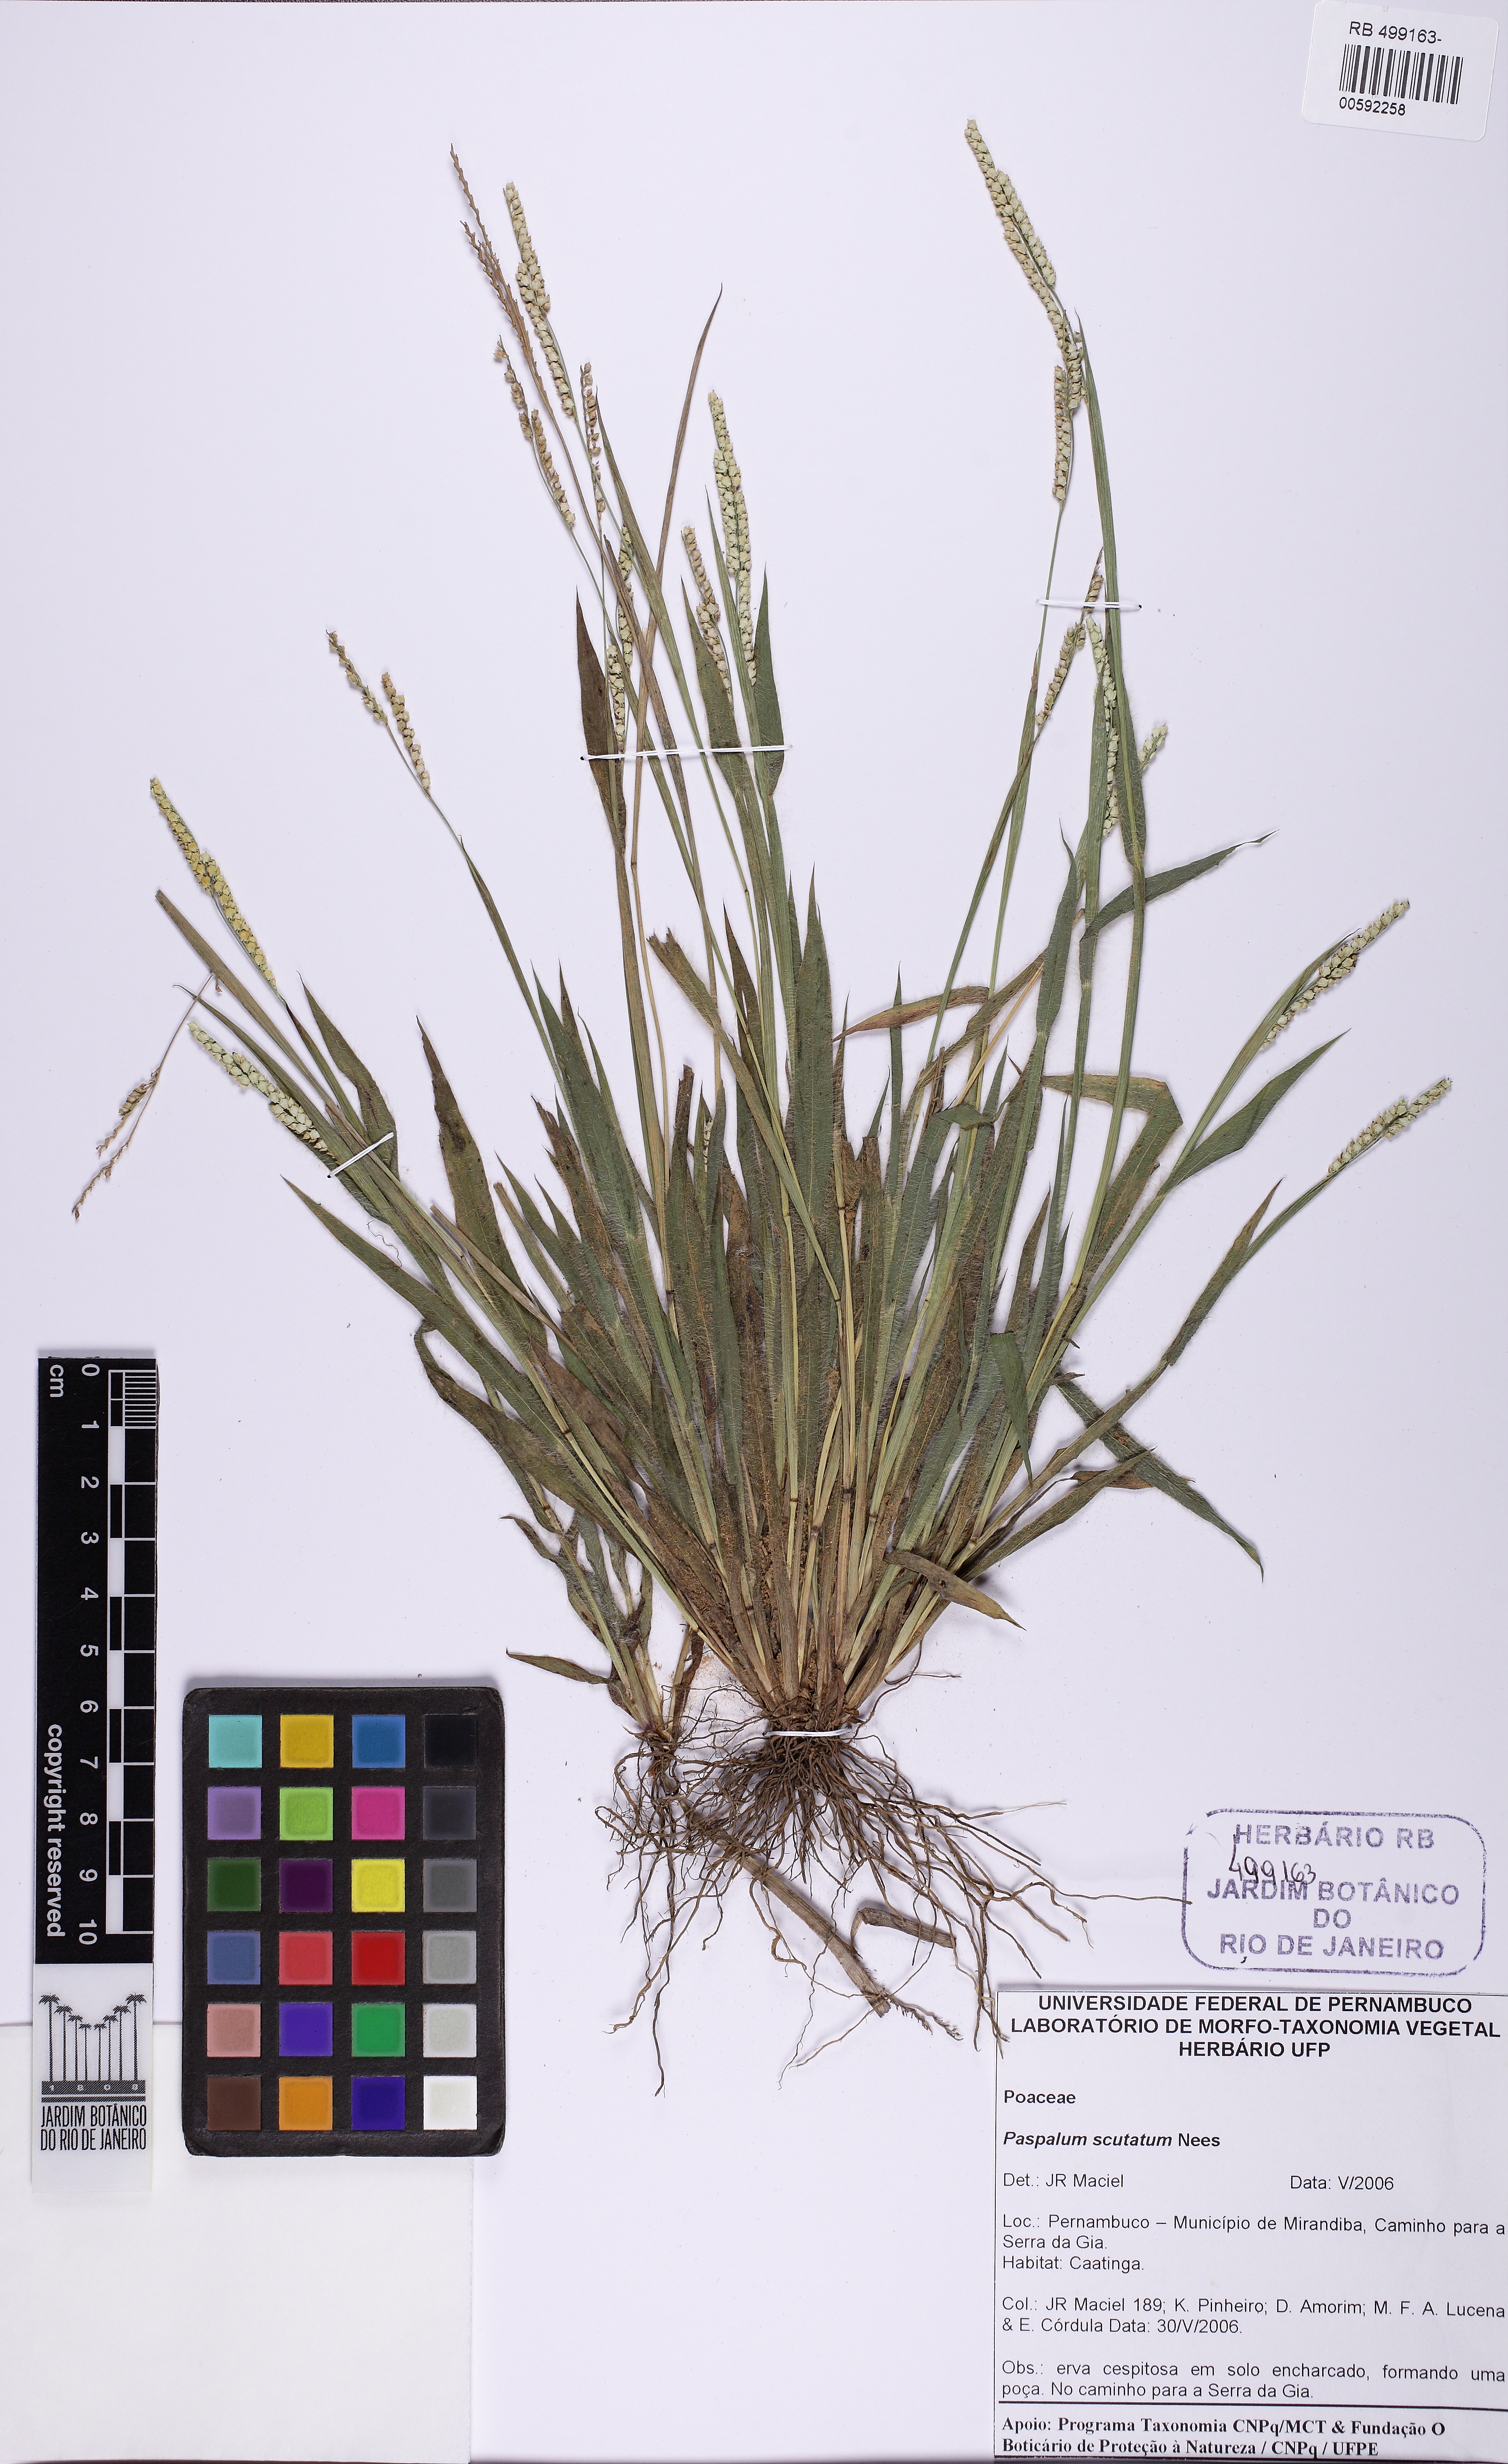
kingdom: Plantae
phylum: Tracheophyta
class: Liliopsida
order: Poales
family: Poaceae
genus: Paspalum
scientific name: Paspalum scutatum
